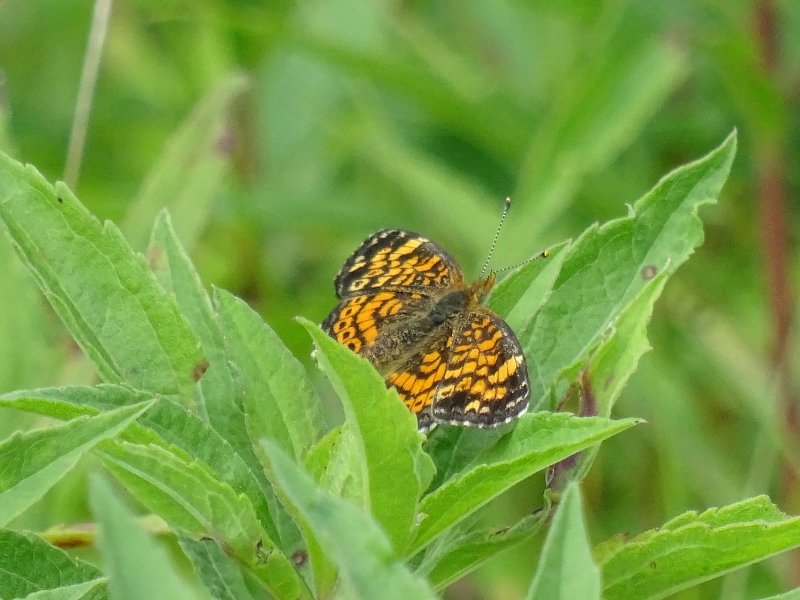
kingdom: Animalia
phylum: Arthropoda
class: Insecta
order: Lepidoptera
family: Nymphalidae
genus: Phyciodes
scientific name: Phyciodes tharos
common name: Northern Crescent
